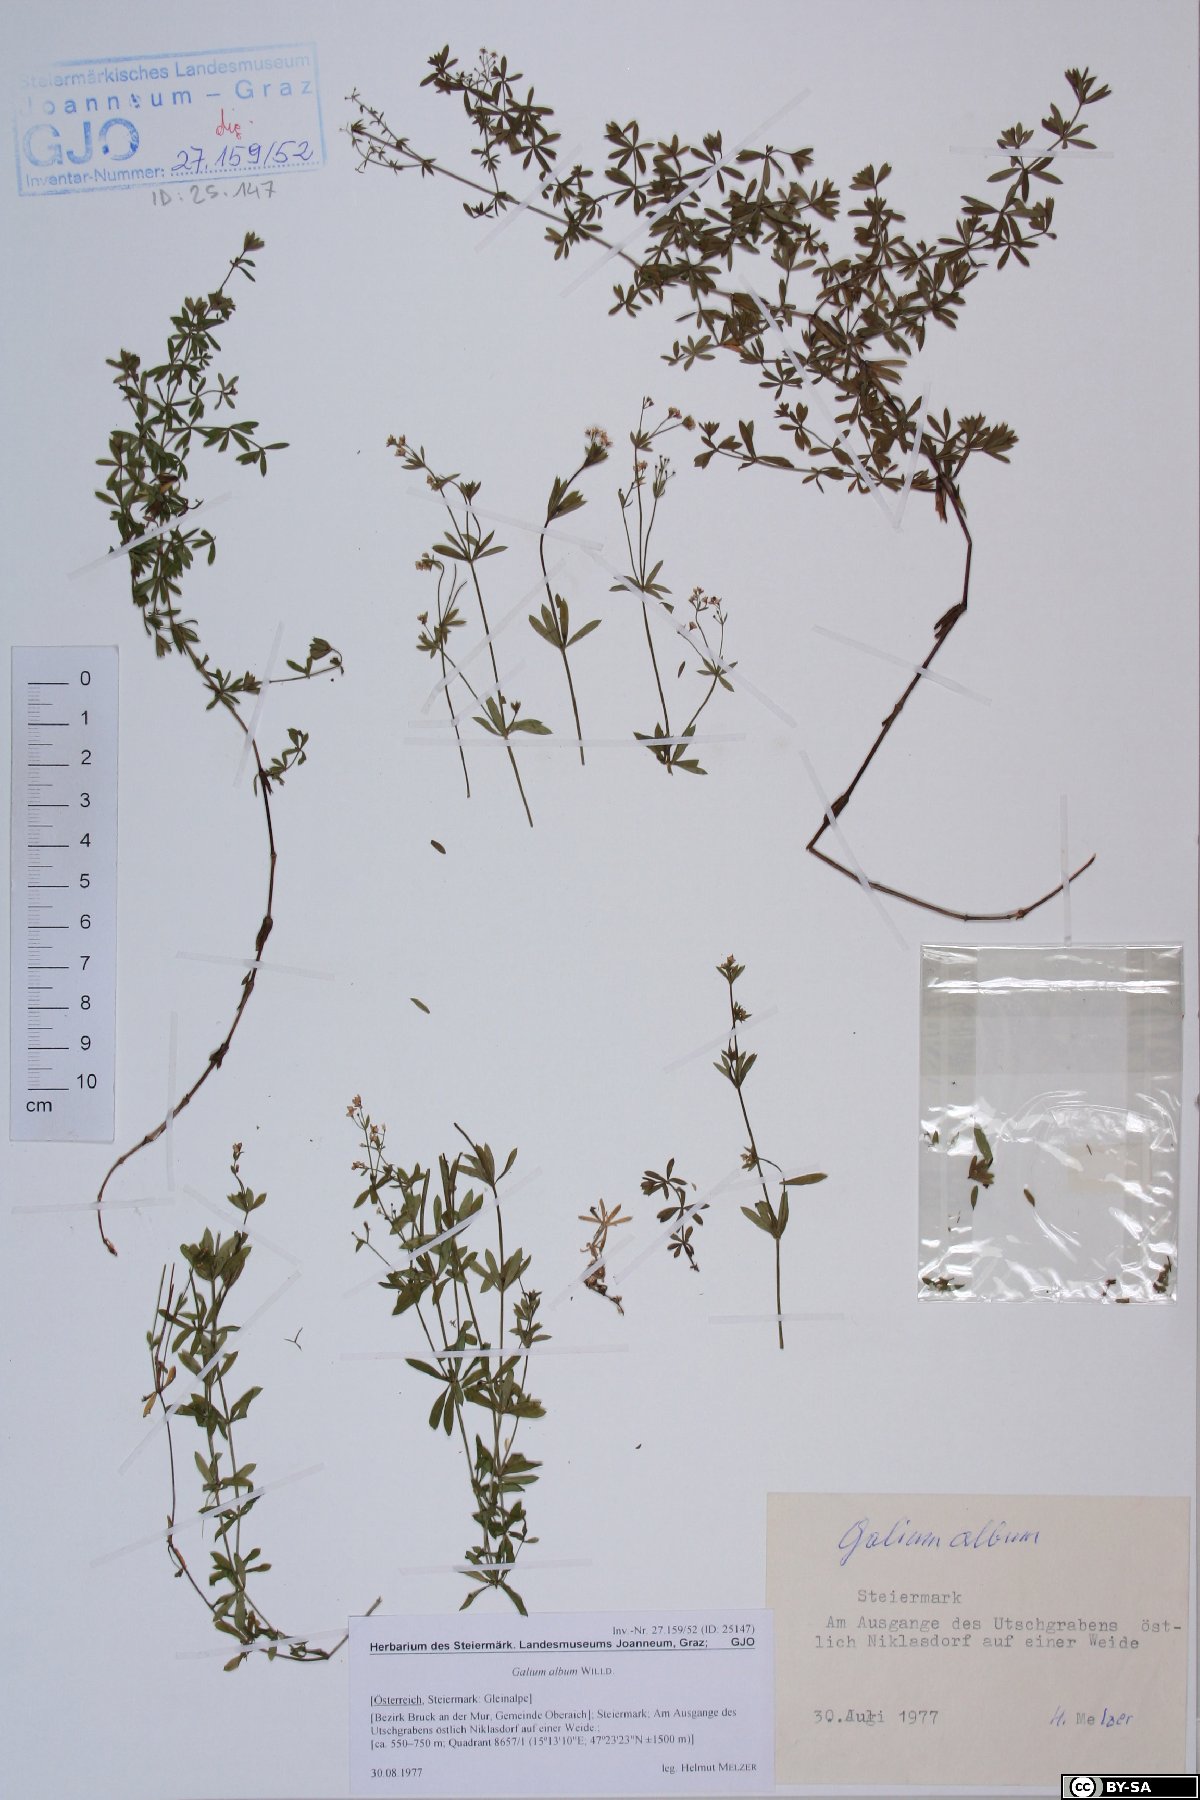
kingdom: Plantae
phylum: Tracheophyta
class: Magnoliopsida
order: Gentianales
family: Rubiaceae
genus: Galium
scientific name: Galium album
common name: White bedstraw
